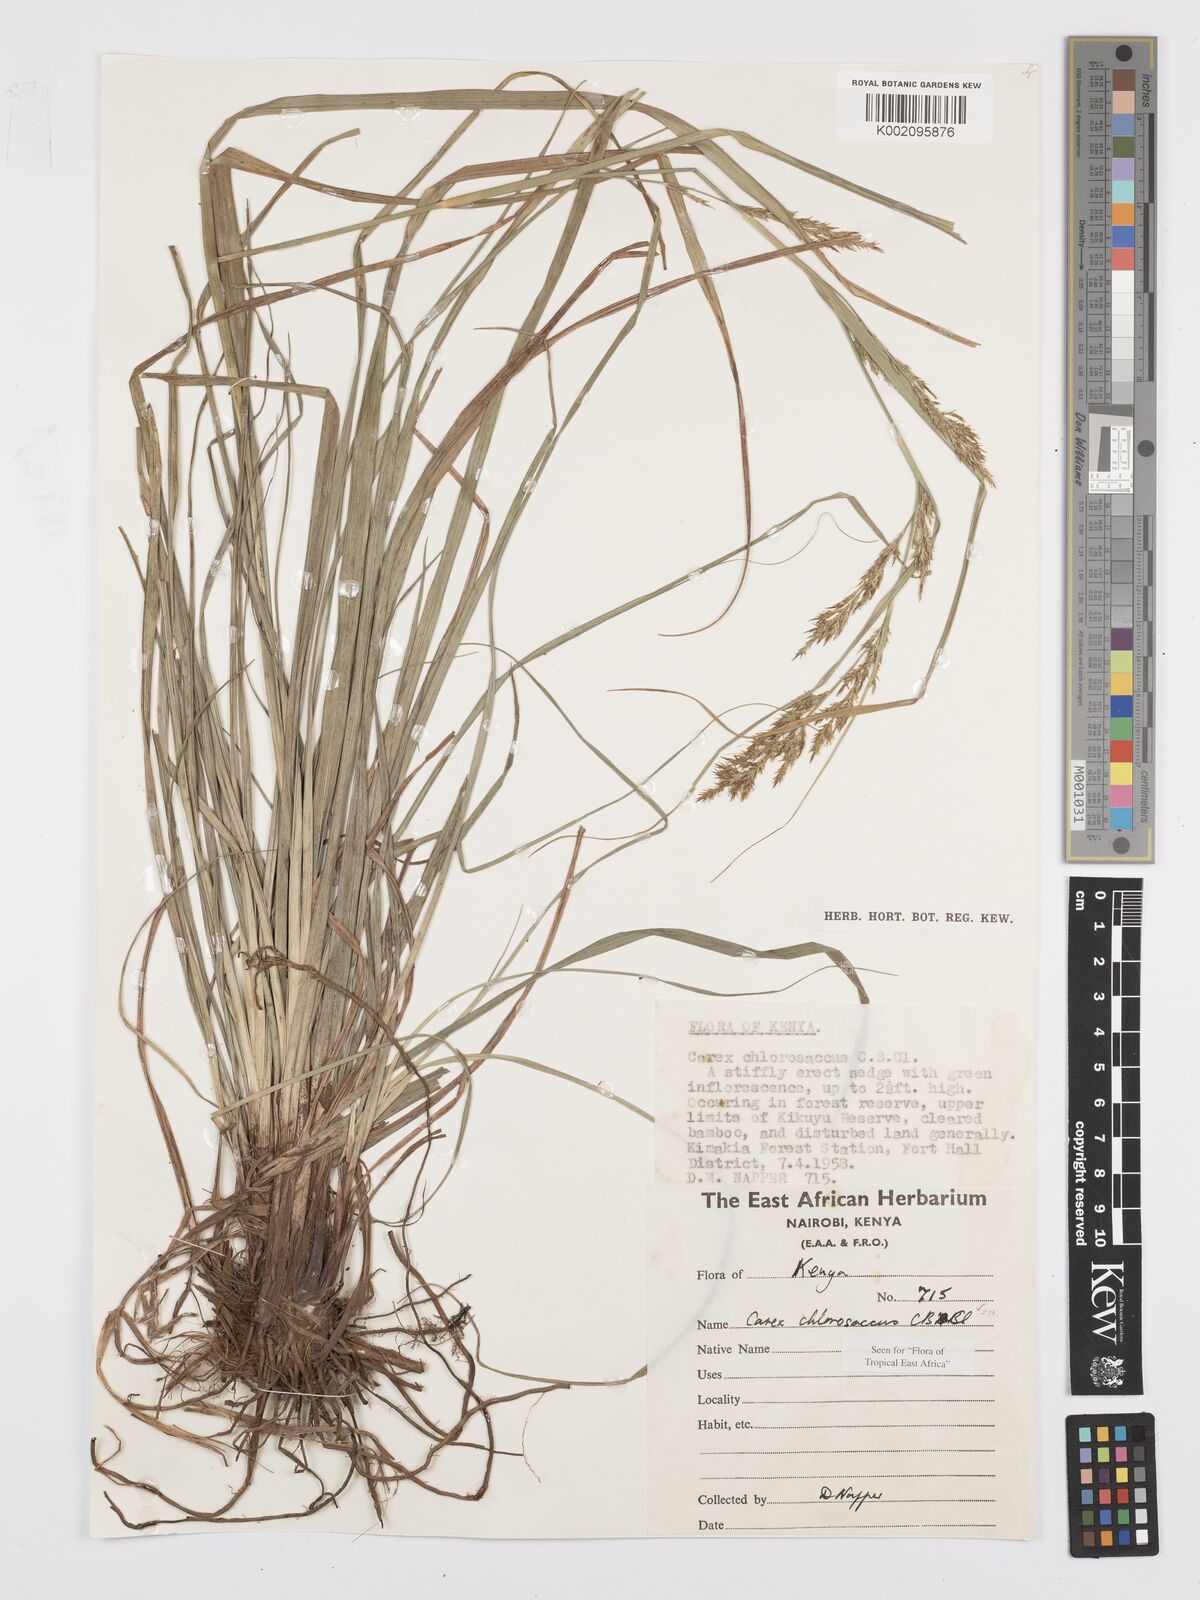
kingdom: Plantae
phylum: Tracheophyta
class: Liliopsida
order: Poales
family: Cyperaceae
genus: Carex
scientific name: Carex chlorosaccus
